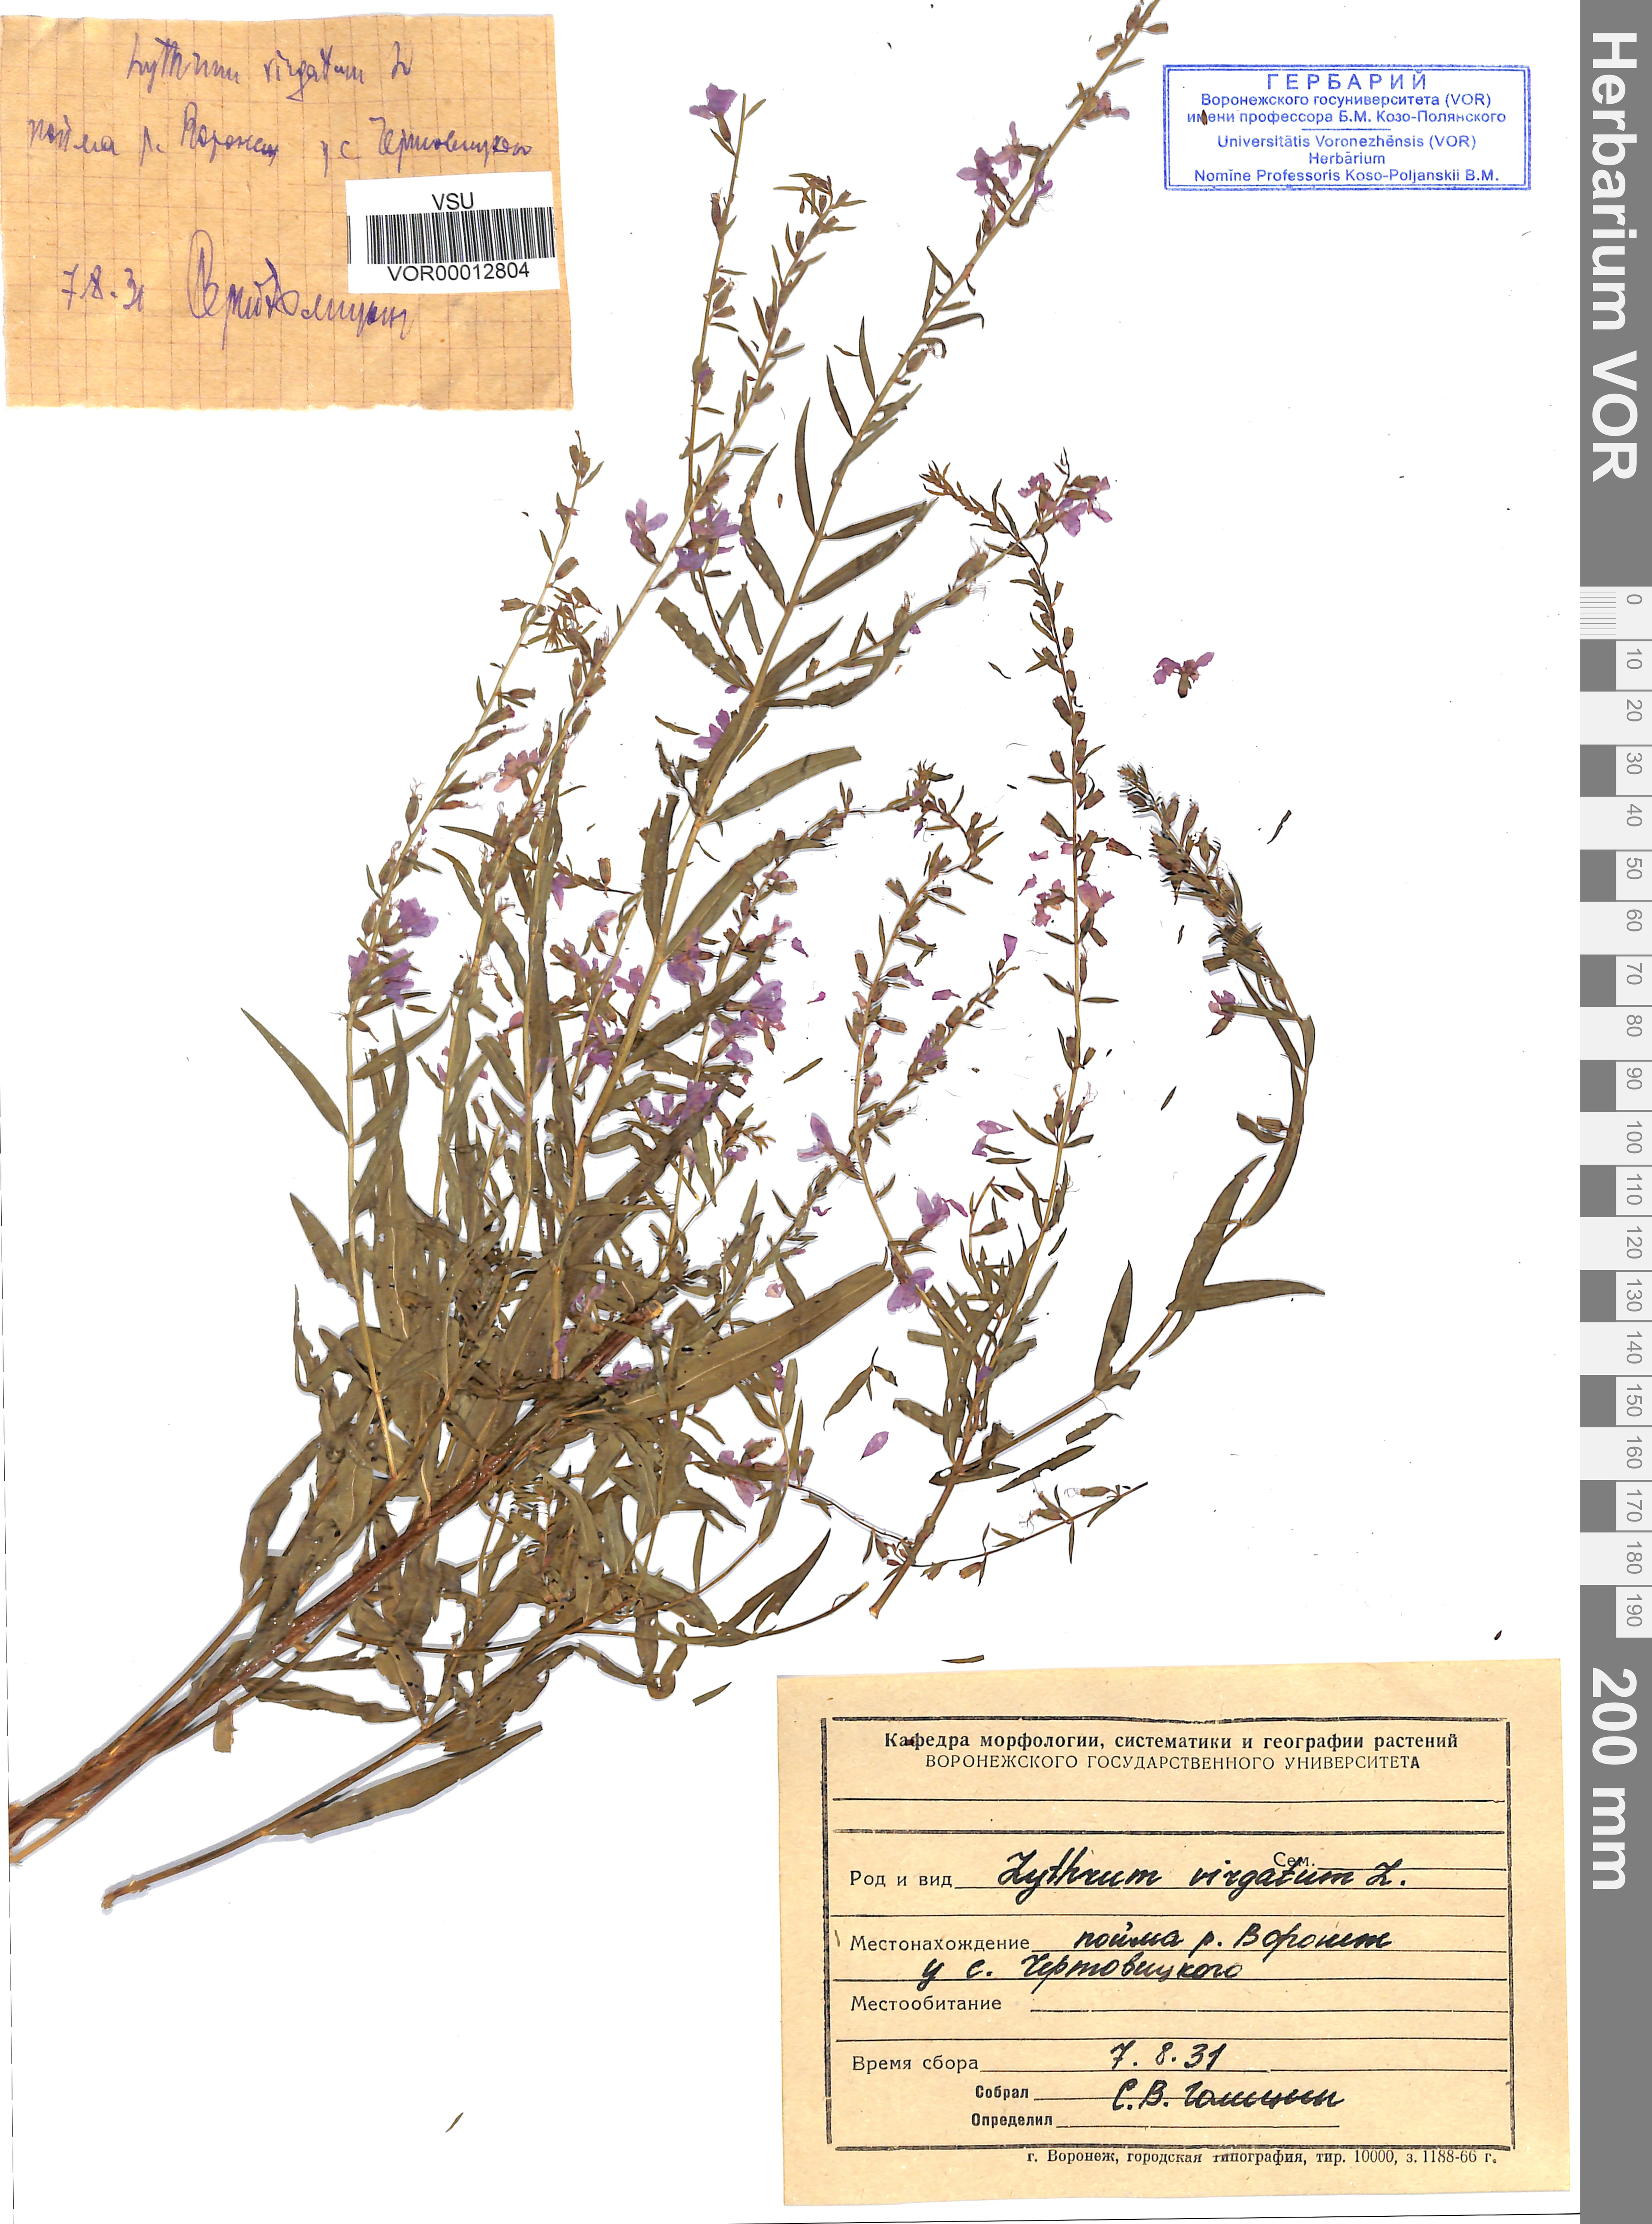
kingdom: Plantae
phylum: Tracheophyta
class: Magnoliopsida
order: Myrtales
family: Lythraceae
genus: Lythrum
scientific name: Lythrum virgatum
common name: European wand loosestrife
